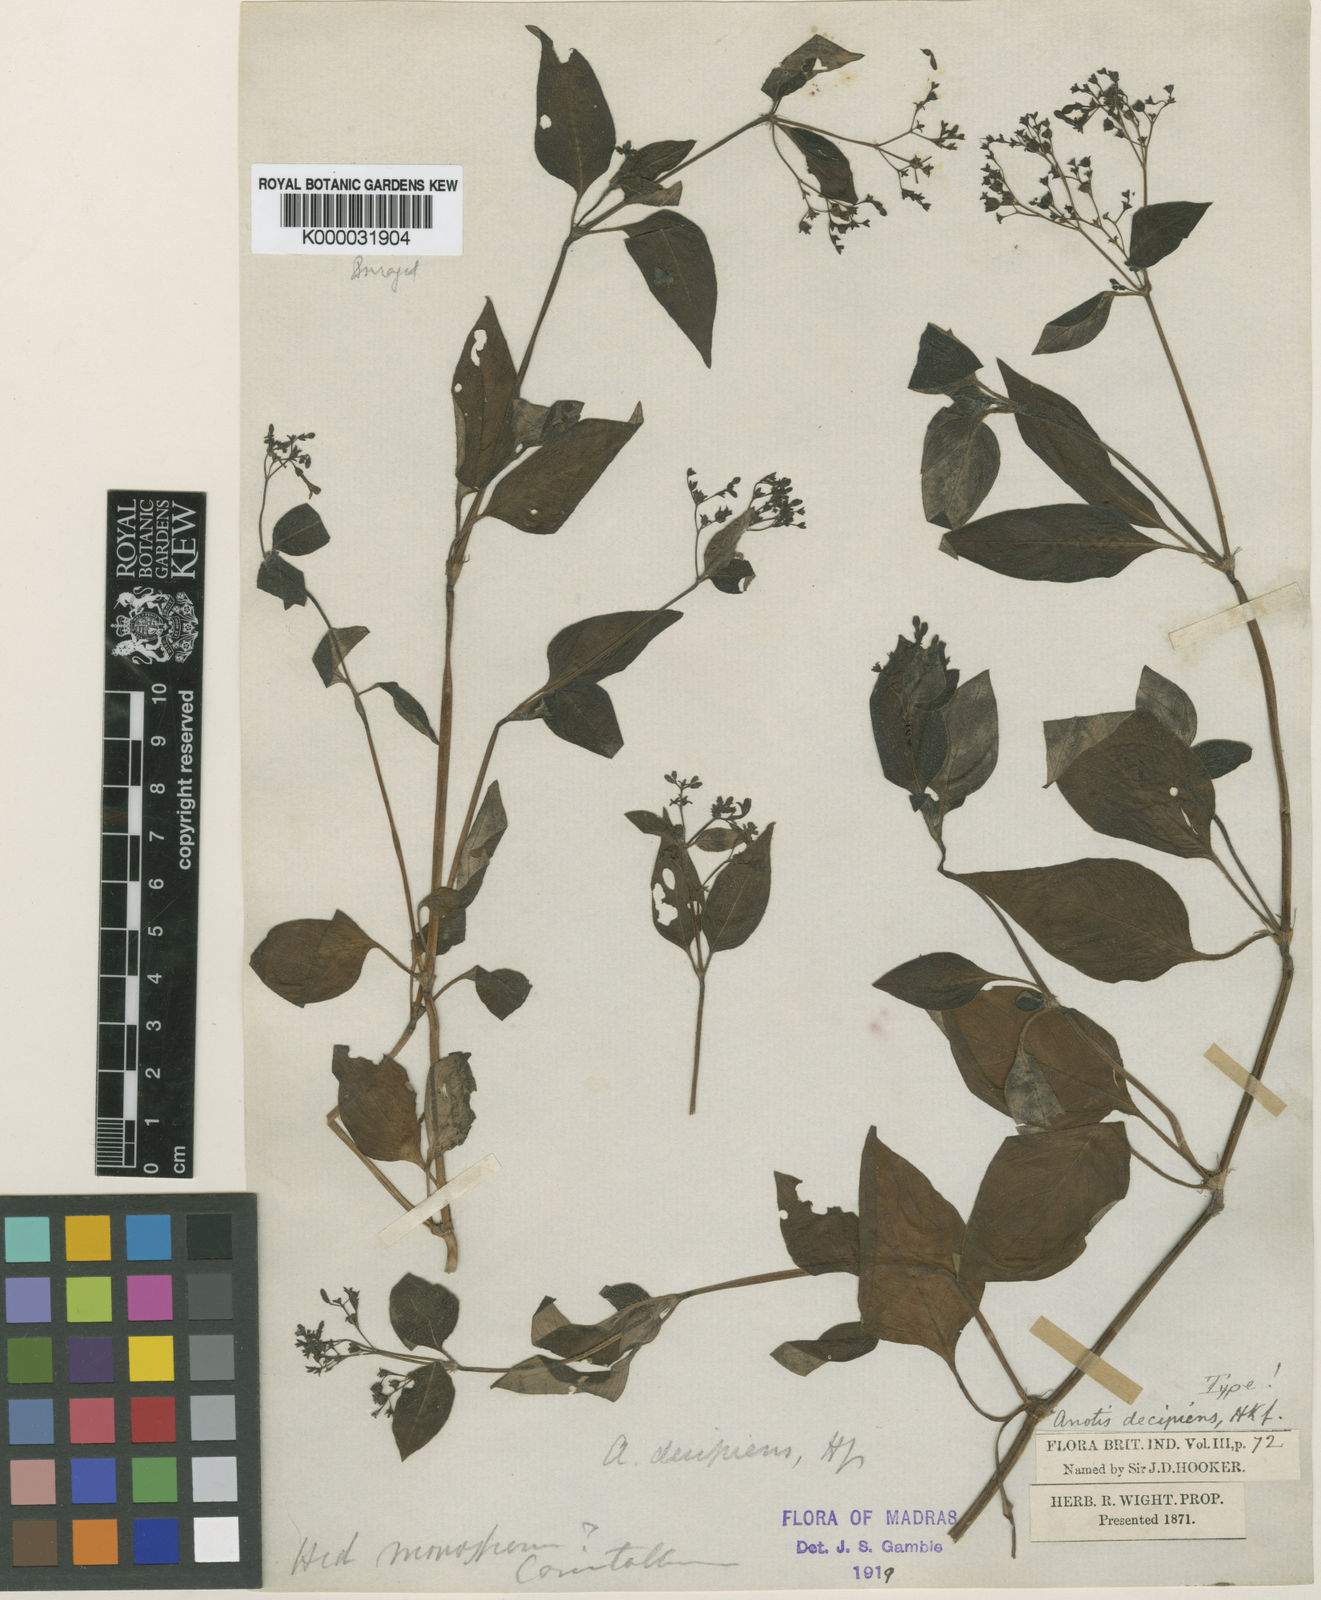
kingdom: Plantae
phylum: Tracheophyta
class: Magnoliopsida
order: Gentianales
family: Rubiaceae
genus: Neanotis
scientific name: Neanotis decipiens
